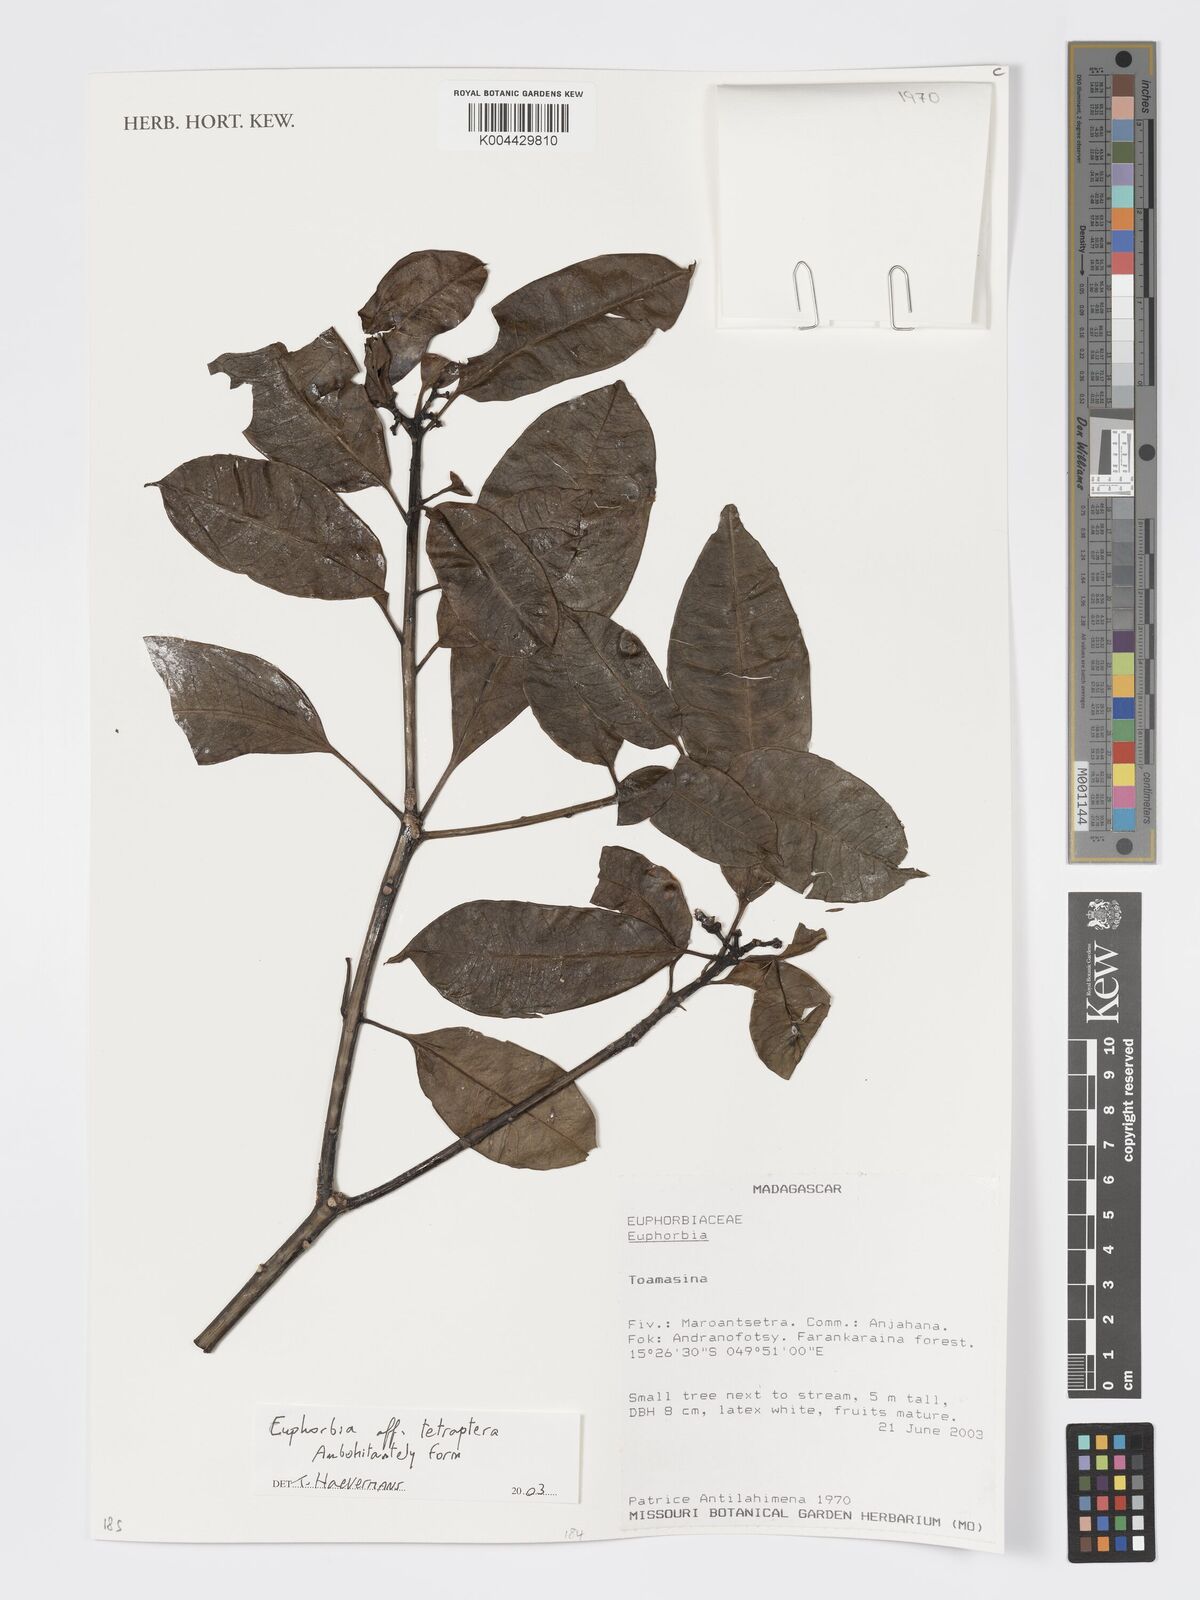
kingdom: Plantae
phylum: Tracheophyta
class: Magnoliopsida
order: Malpighiales
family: Euphorbiaceae
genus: Euphorbia
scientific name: Euphorbia tetraptera
